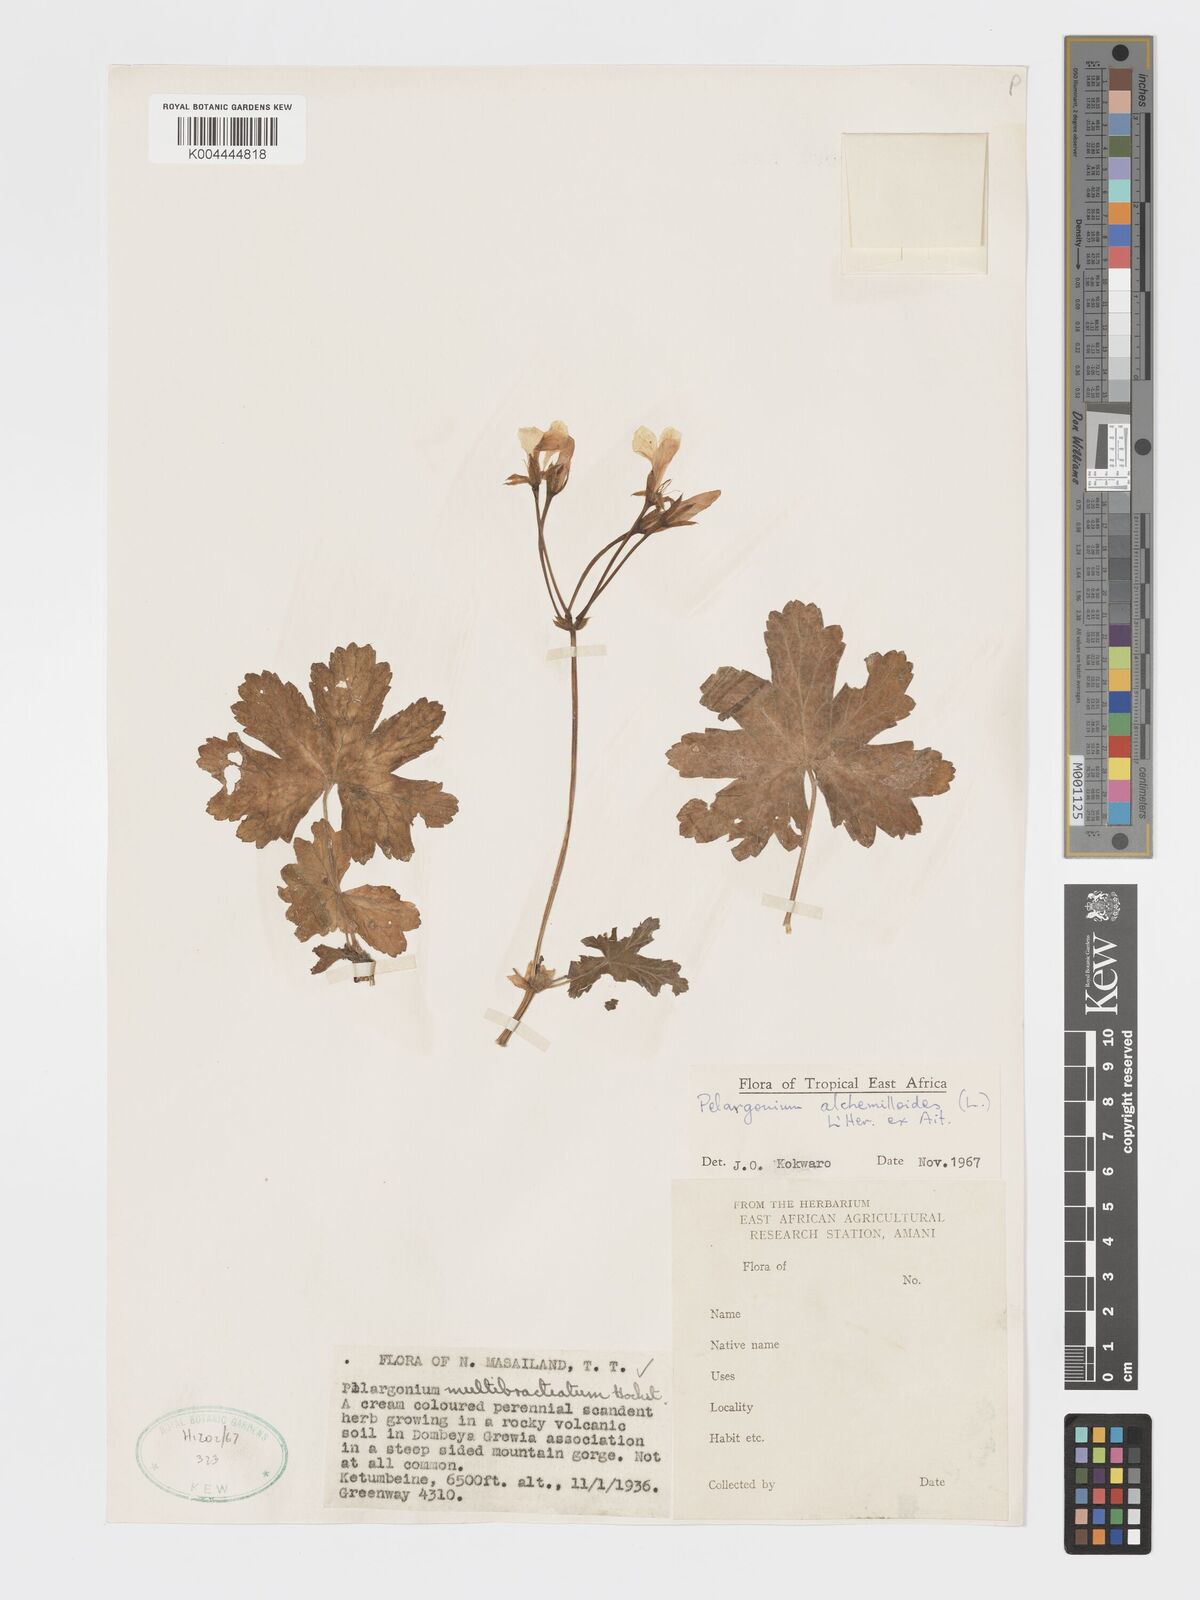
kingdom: Plantae
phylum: Tracheophyta
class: Magnoliopsida
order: Geraniales
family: Geraniaceae
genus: Pelargonium
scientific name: Pelargonium alchemilloides
